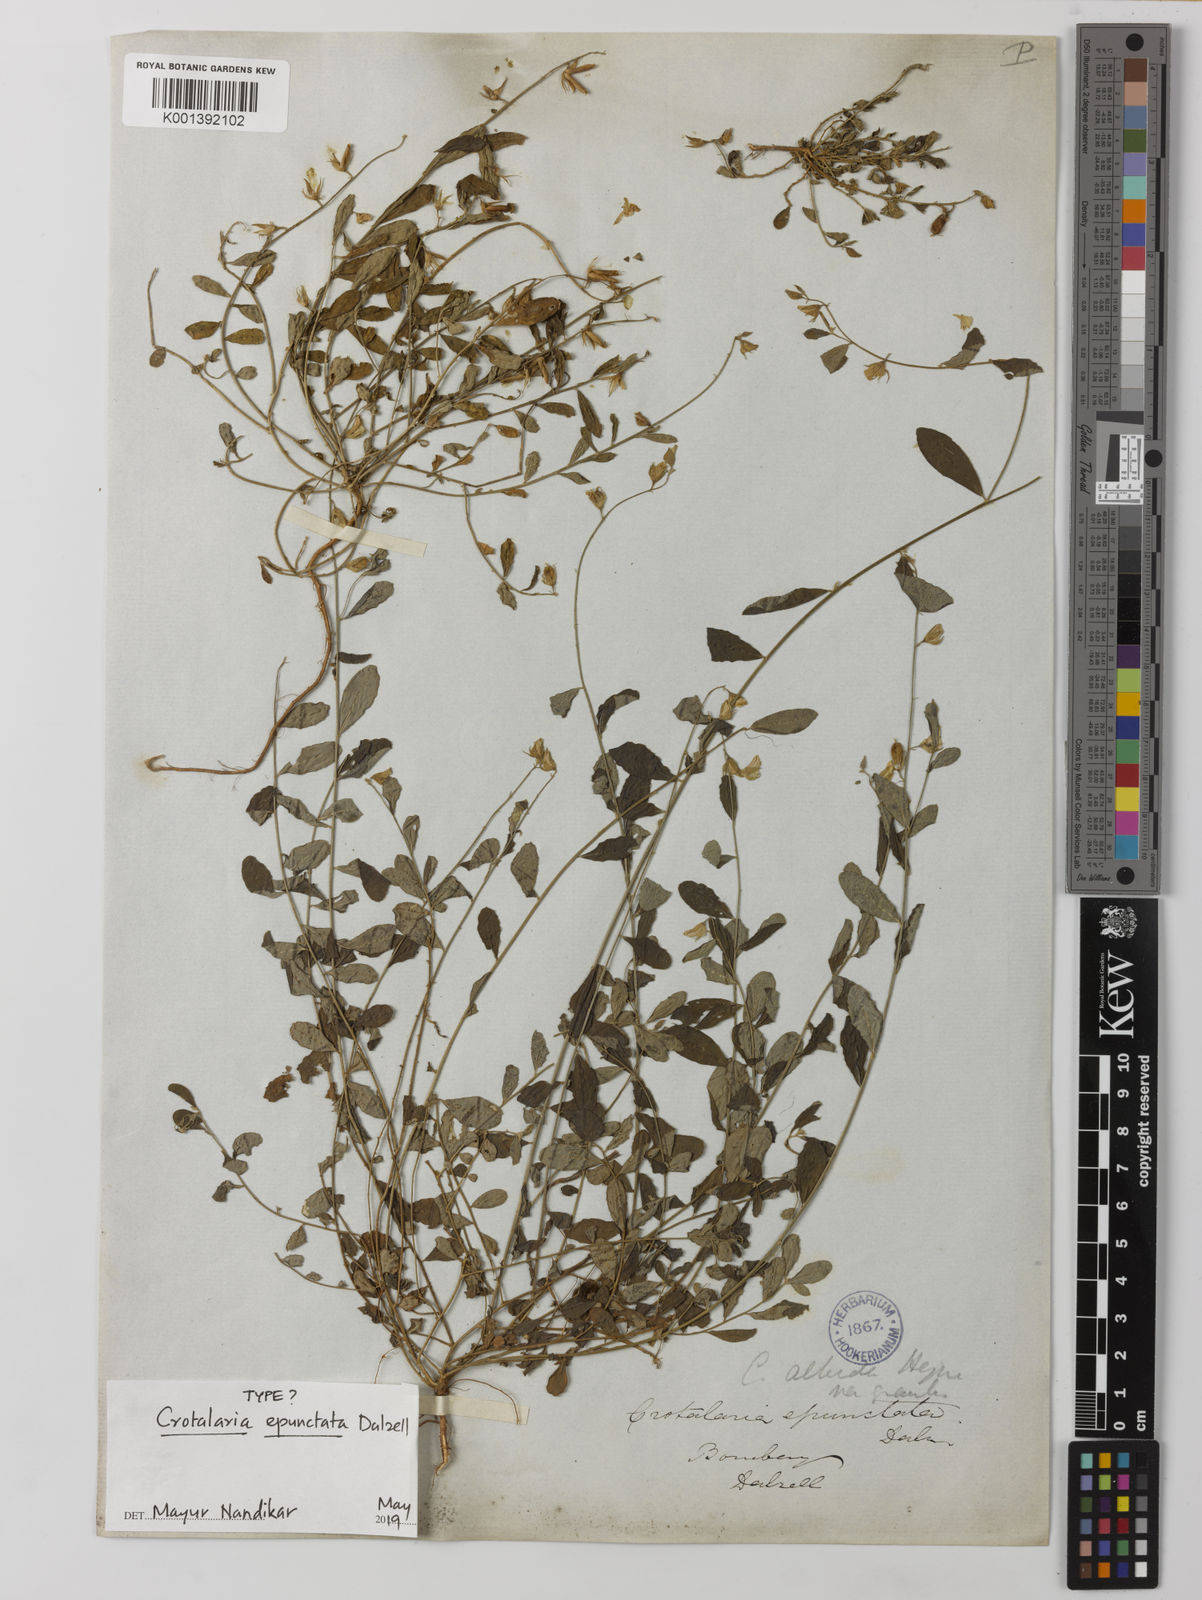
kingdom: Plantae
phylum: Tracheophyta
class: Magnoliopsida
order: Fabales
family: Fabaceae
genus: Crotalaria
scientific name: Crotalaria epunctata
